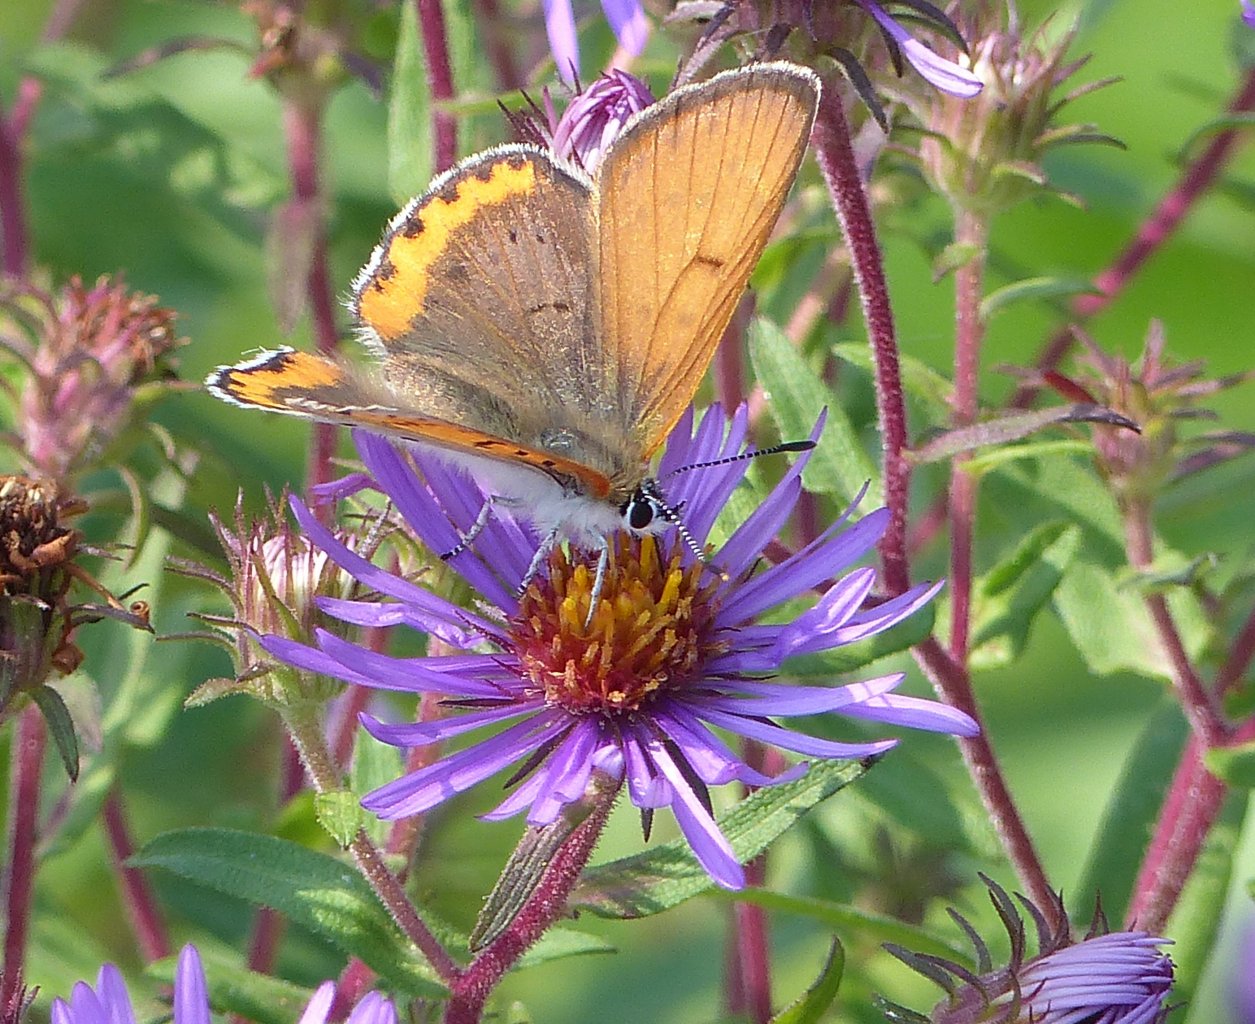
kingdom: Animalia
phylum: Arthropoda
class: Insecta
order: Lepidoptera
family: Sesiidae
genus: Sesia
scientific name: Sesia Lycaena hyllus
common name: Bronze Copper
